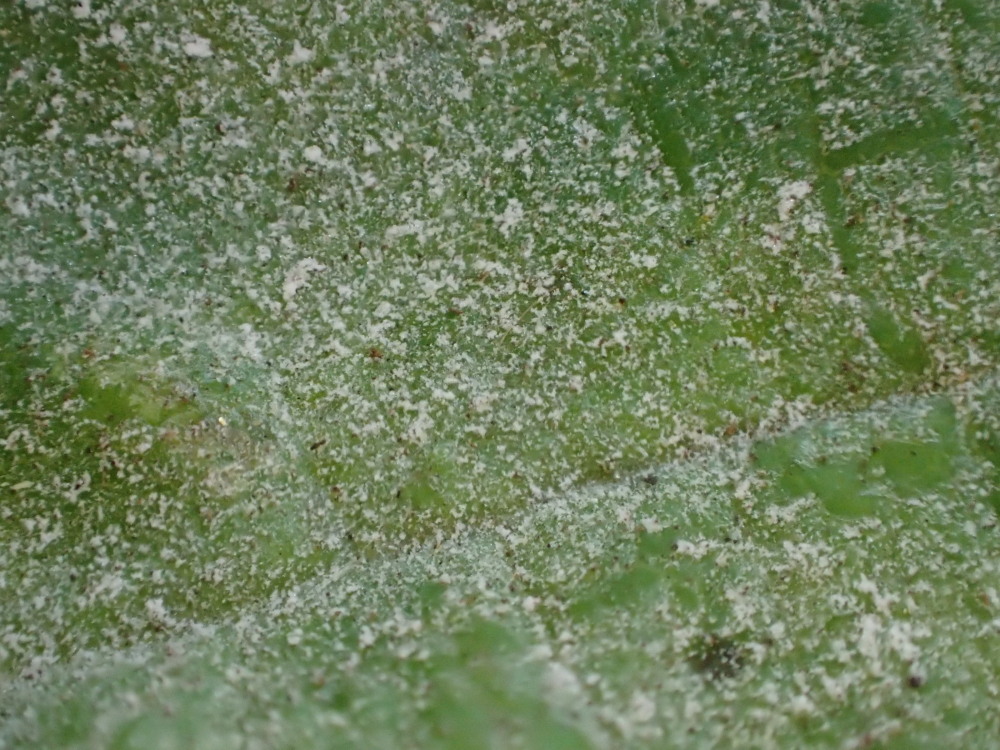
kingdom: Fungi
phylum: Ascomycota
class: Leotiomycetes
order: Helotiales
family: Erysiphaceae
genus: Sawadaea
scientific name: Sawadaea bicornis
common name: Maple mildew
